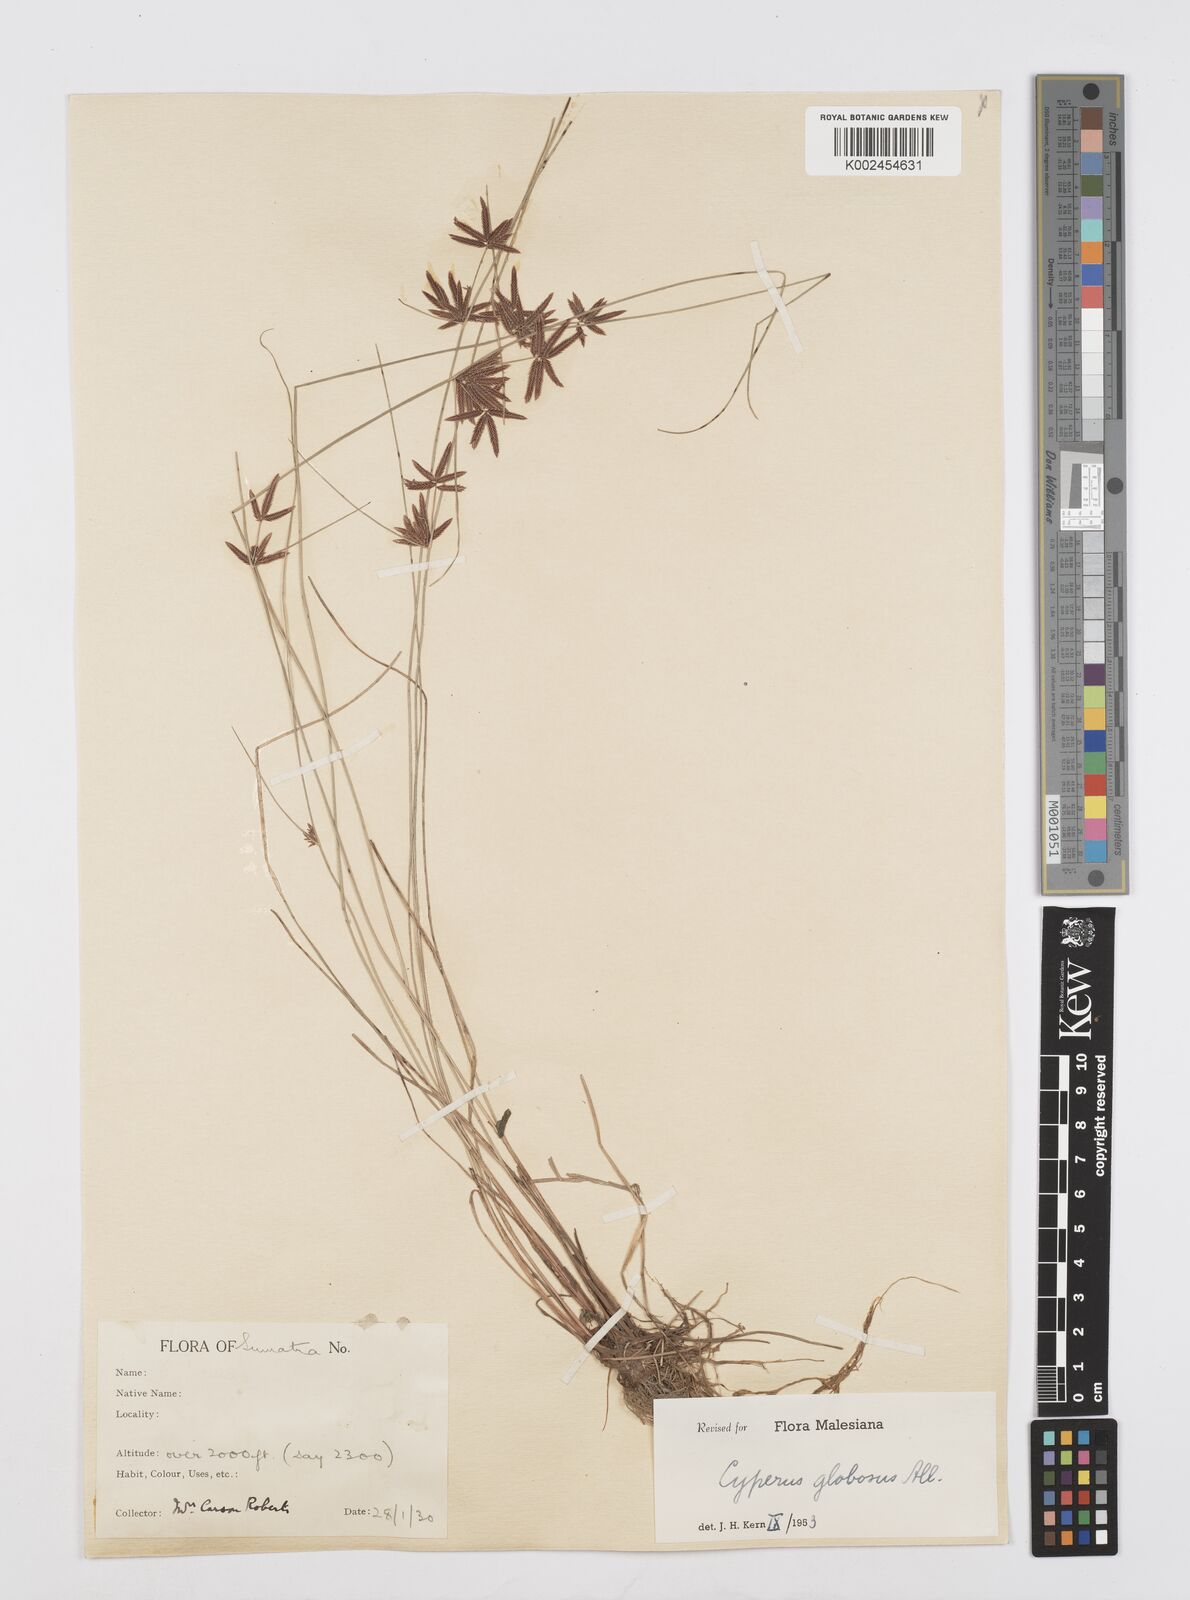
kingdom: Plantae
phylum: Tracheophyta
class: Liliopsida
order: Poales
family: Cyperaceae
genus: Cyperus
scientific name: Cyperus flavidus
